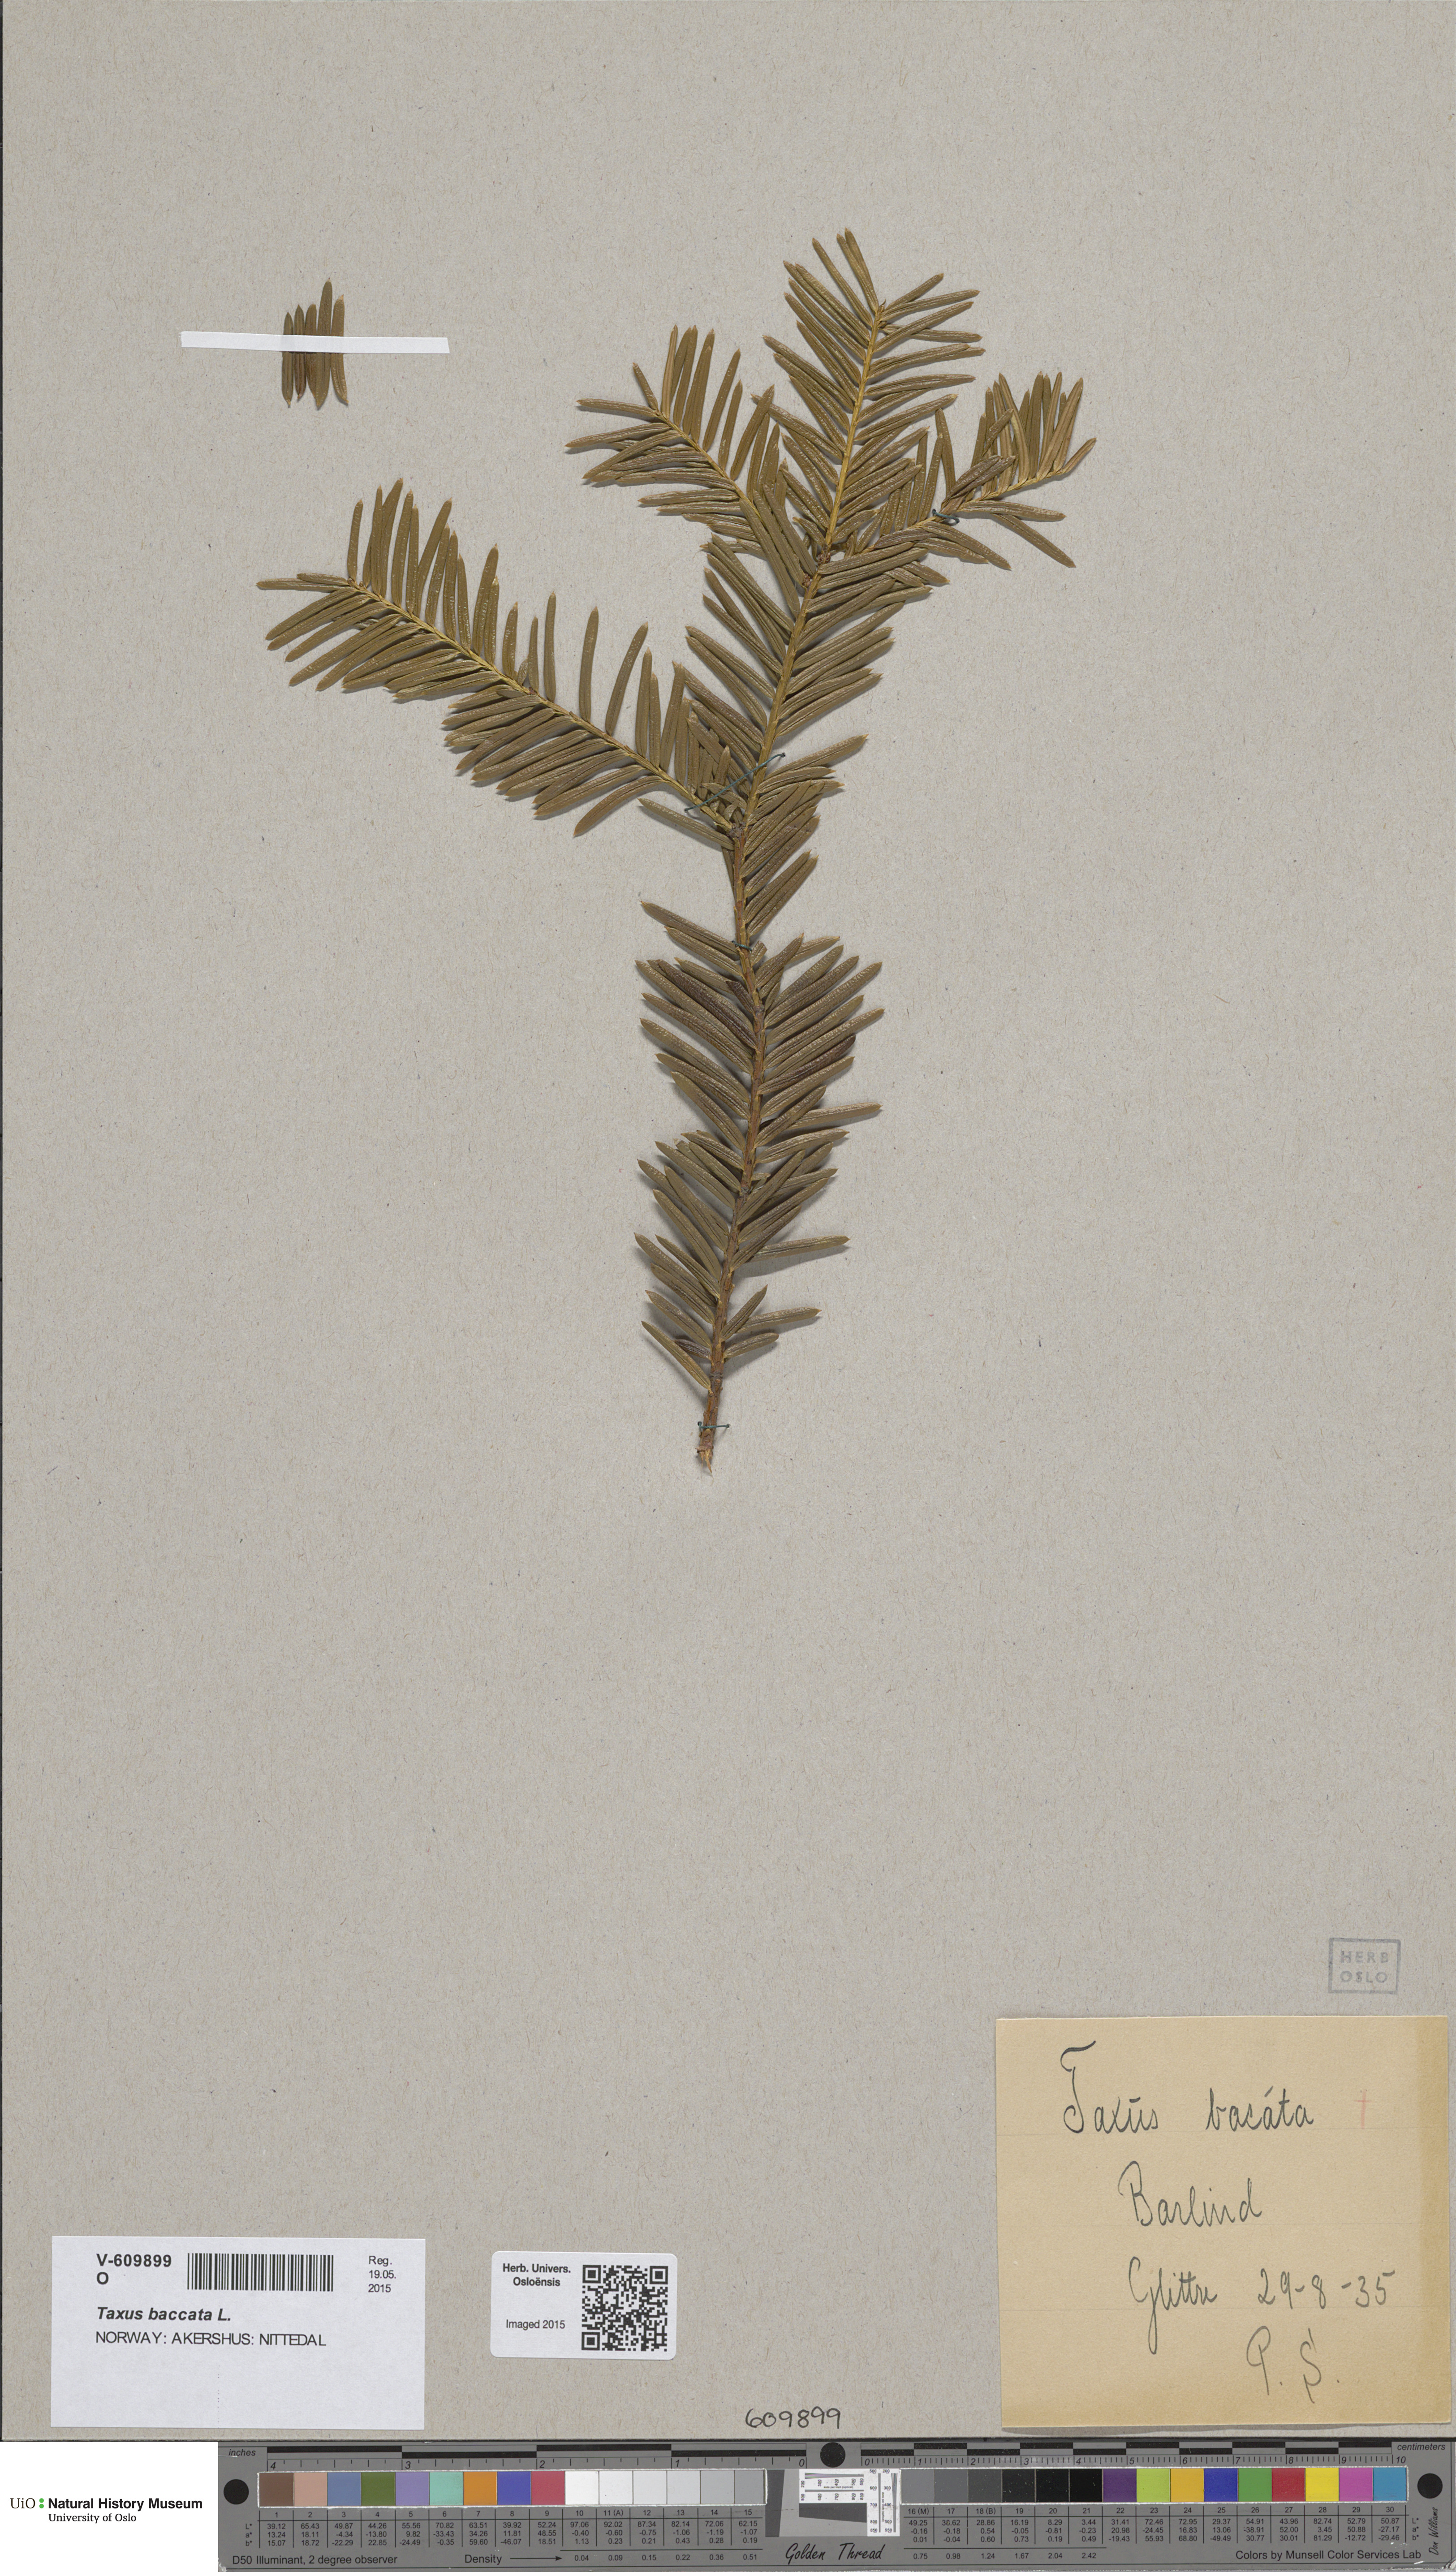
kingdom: Plantae
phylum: Tracheophyta
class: Pinopsida
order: Pinales
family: Taxaceae
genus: Taxus
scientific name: Taxus baccata
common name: Yew
